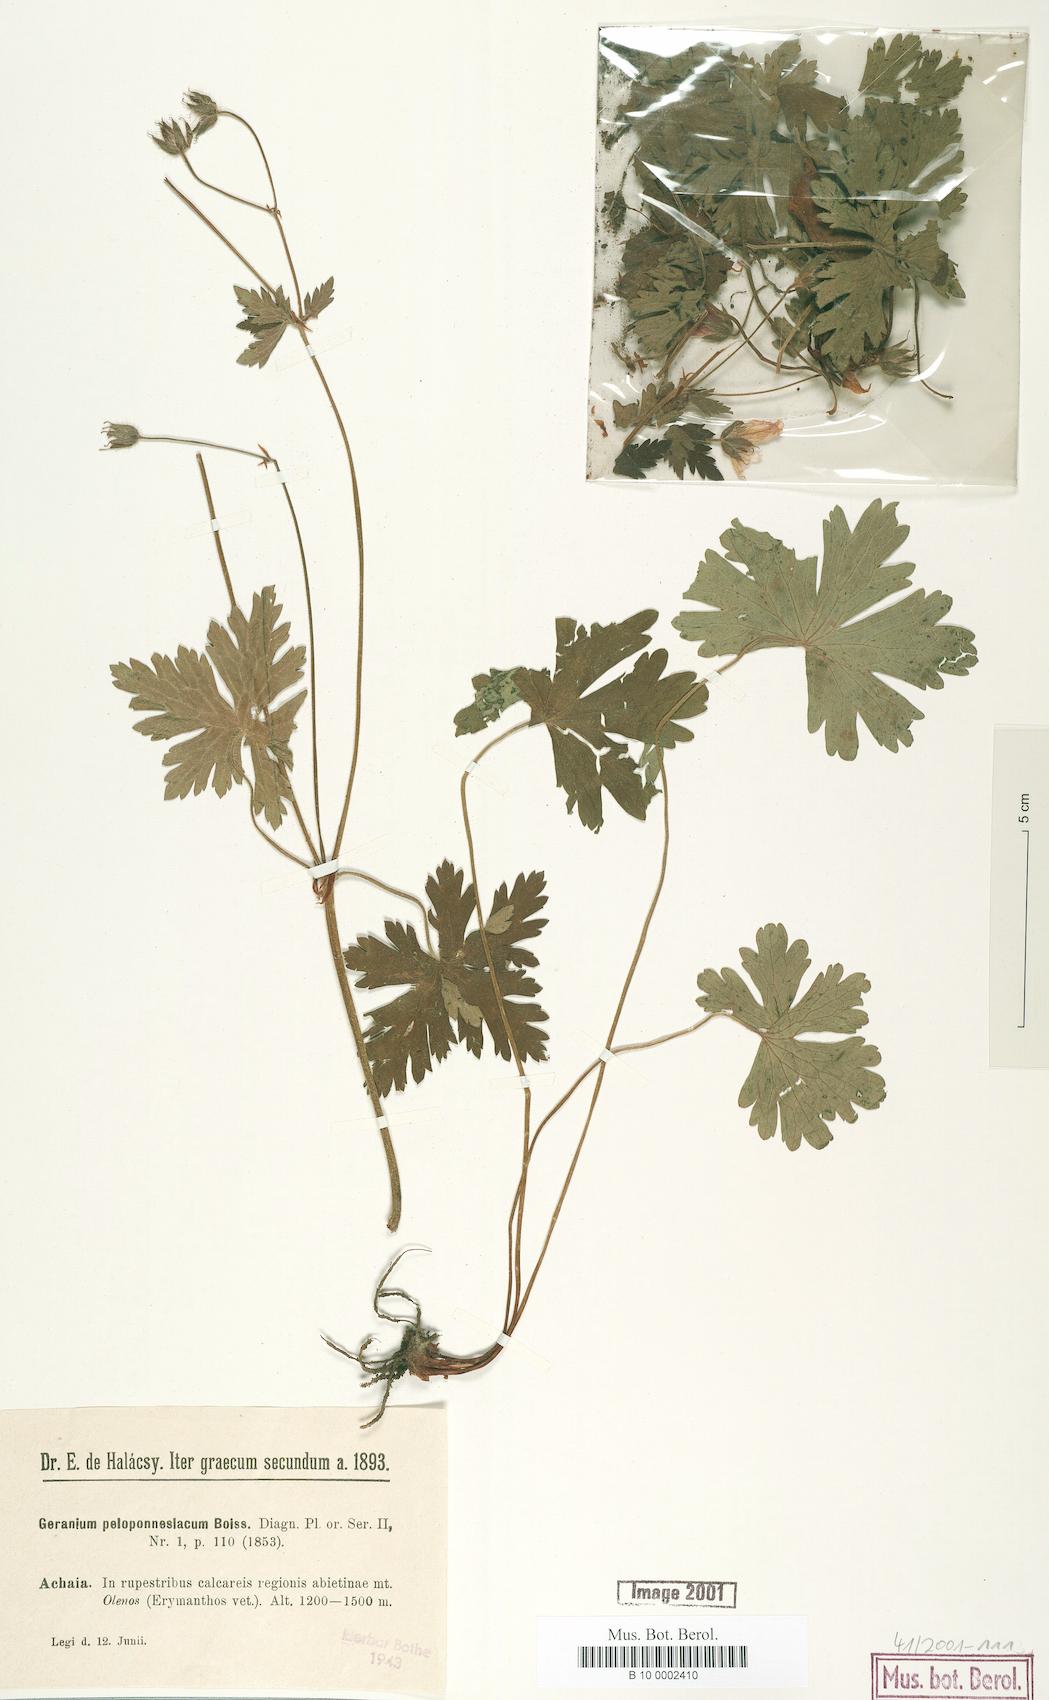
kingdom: Plantae
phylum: Tracheophyta
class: Magnoliopsida
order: Geraniales
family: Geraniaceae
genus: Geranium
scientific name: Geranium peloponnesiacum
